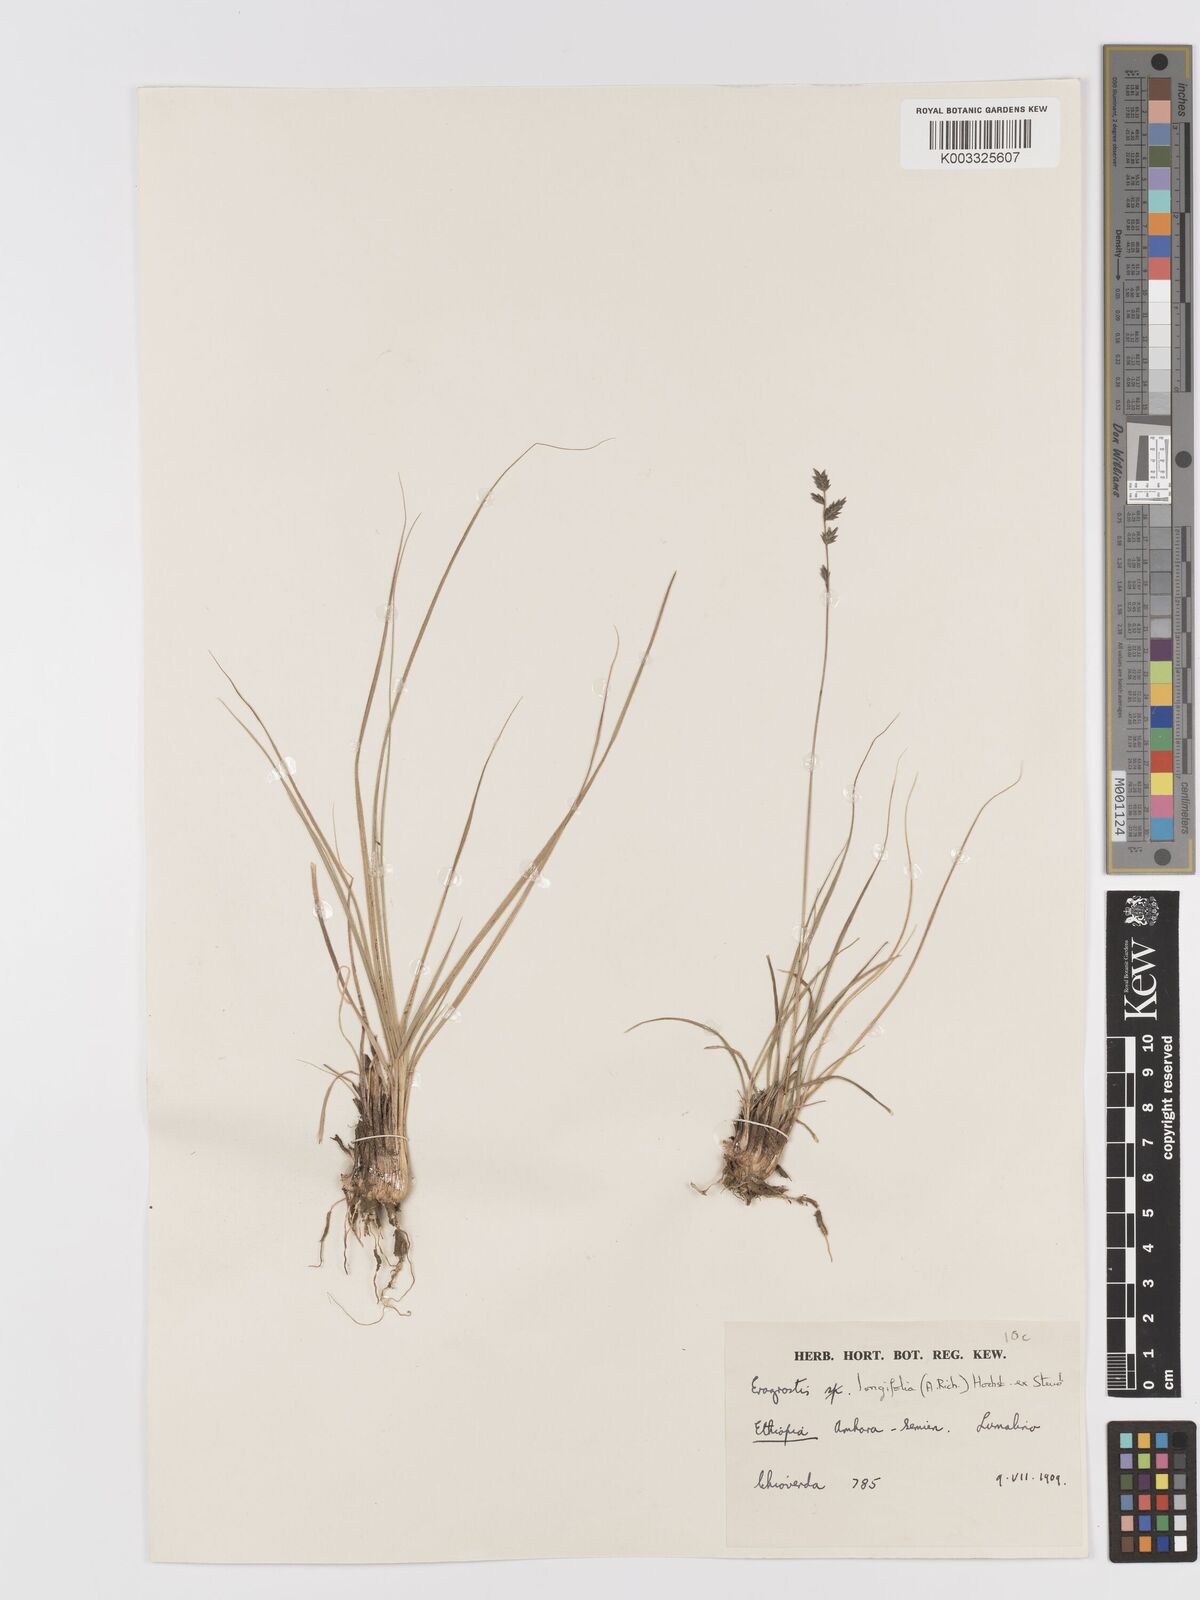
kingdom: Plantae
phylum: Tracheophyta
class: Liliopsida
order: Poales
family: Poaceae
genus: Eragrostis
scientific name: Eragrostis longifolia
